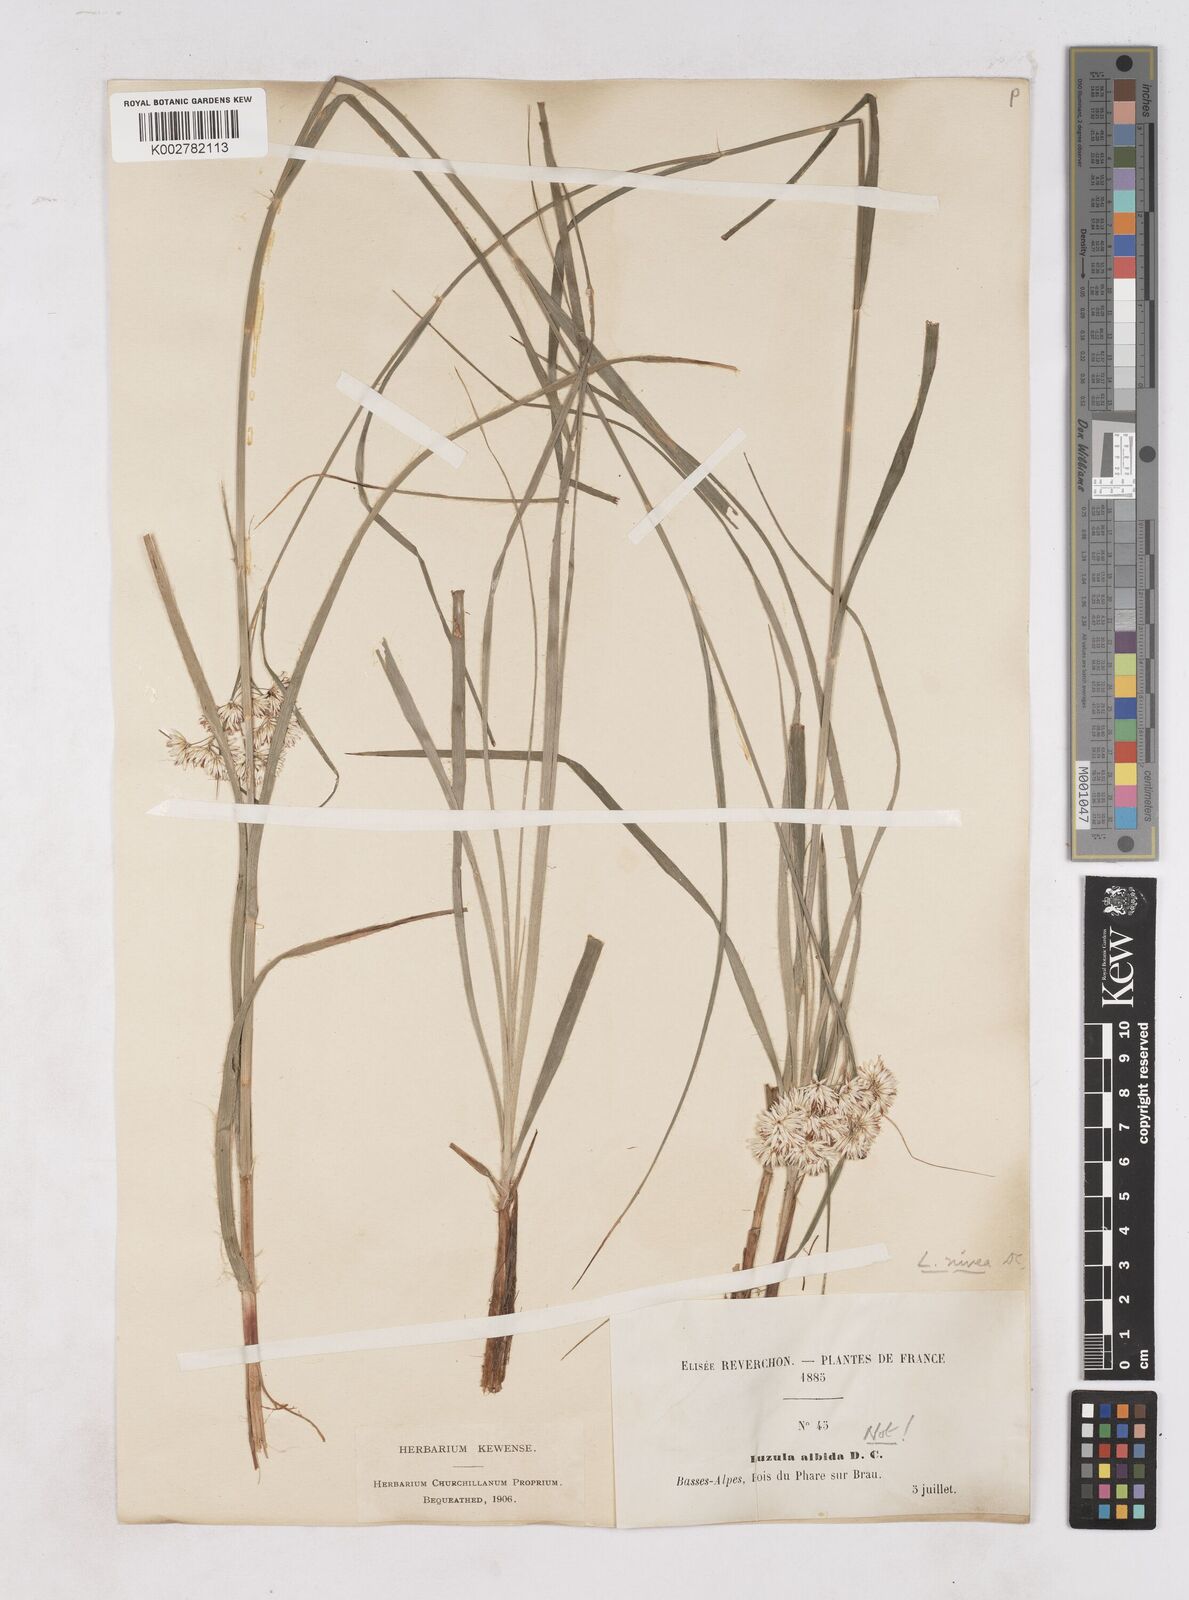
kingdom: Plantae
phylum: Tracheophyta
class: Liliopsida
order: Poales
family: Juncaceae
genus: Luzula
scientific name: Luzula nivea
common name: Snow-white wood-rush
